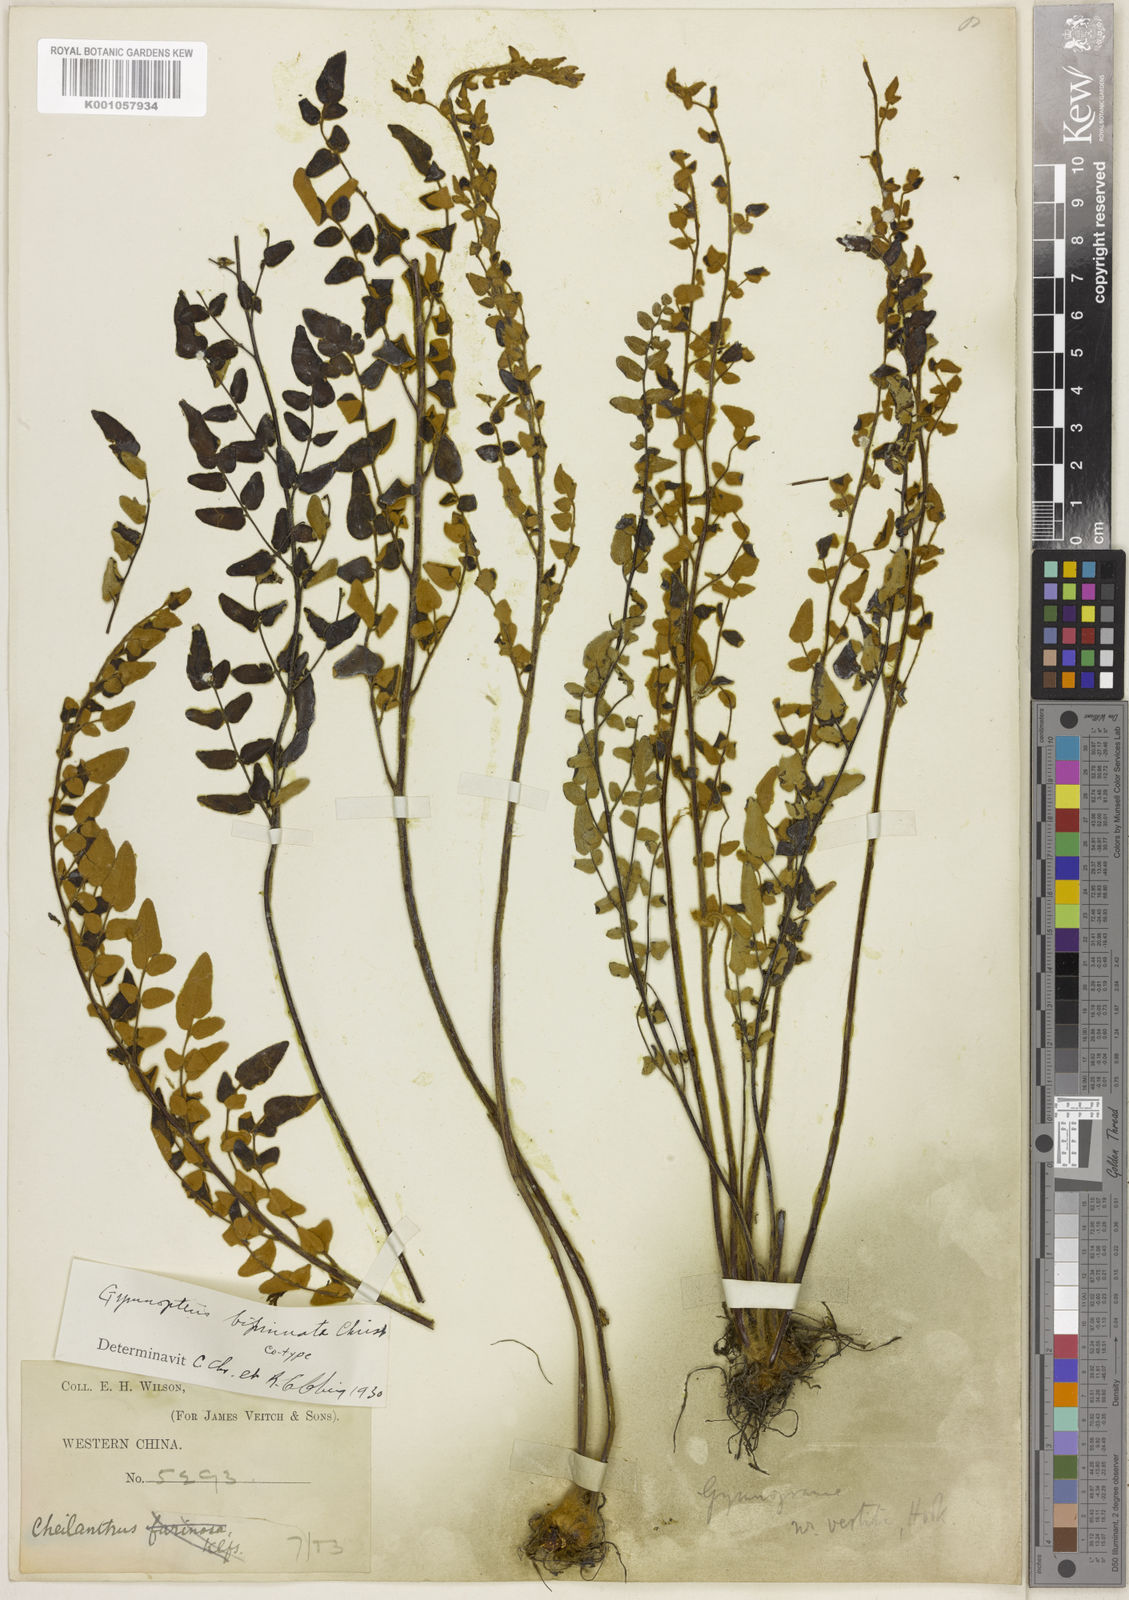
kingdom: Plantae
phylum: Tracheophyta
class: Polypodiopsida
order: Polypodiales
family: Pteridaceae
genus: Paragymnopteris
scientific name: Paragymnopteris bipinnata
